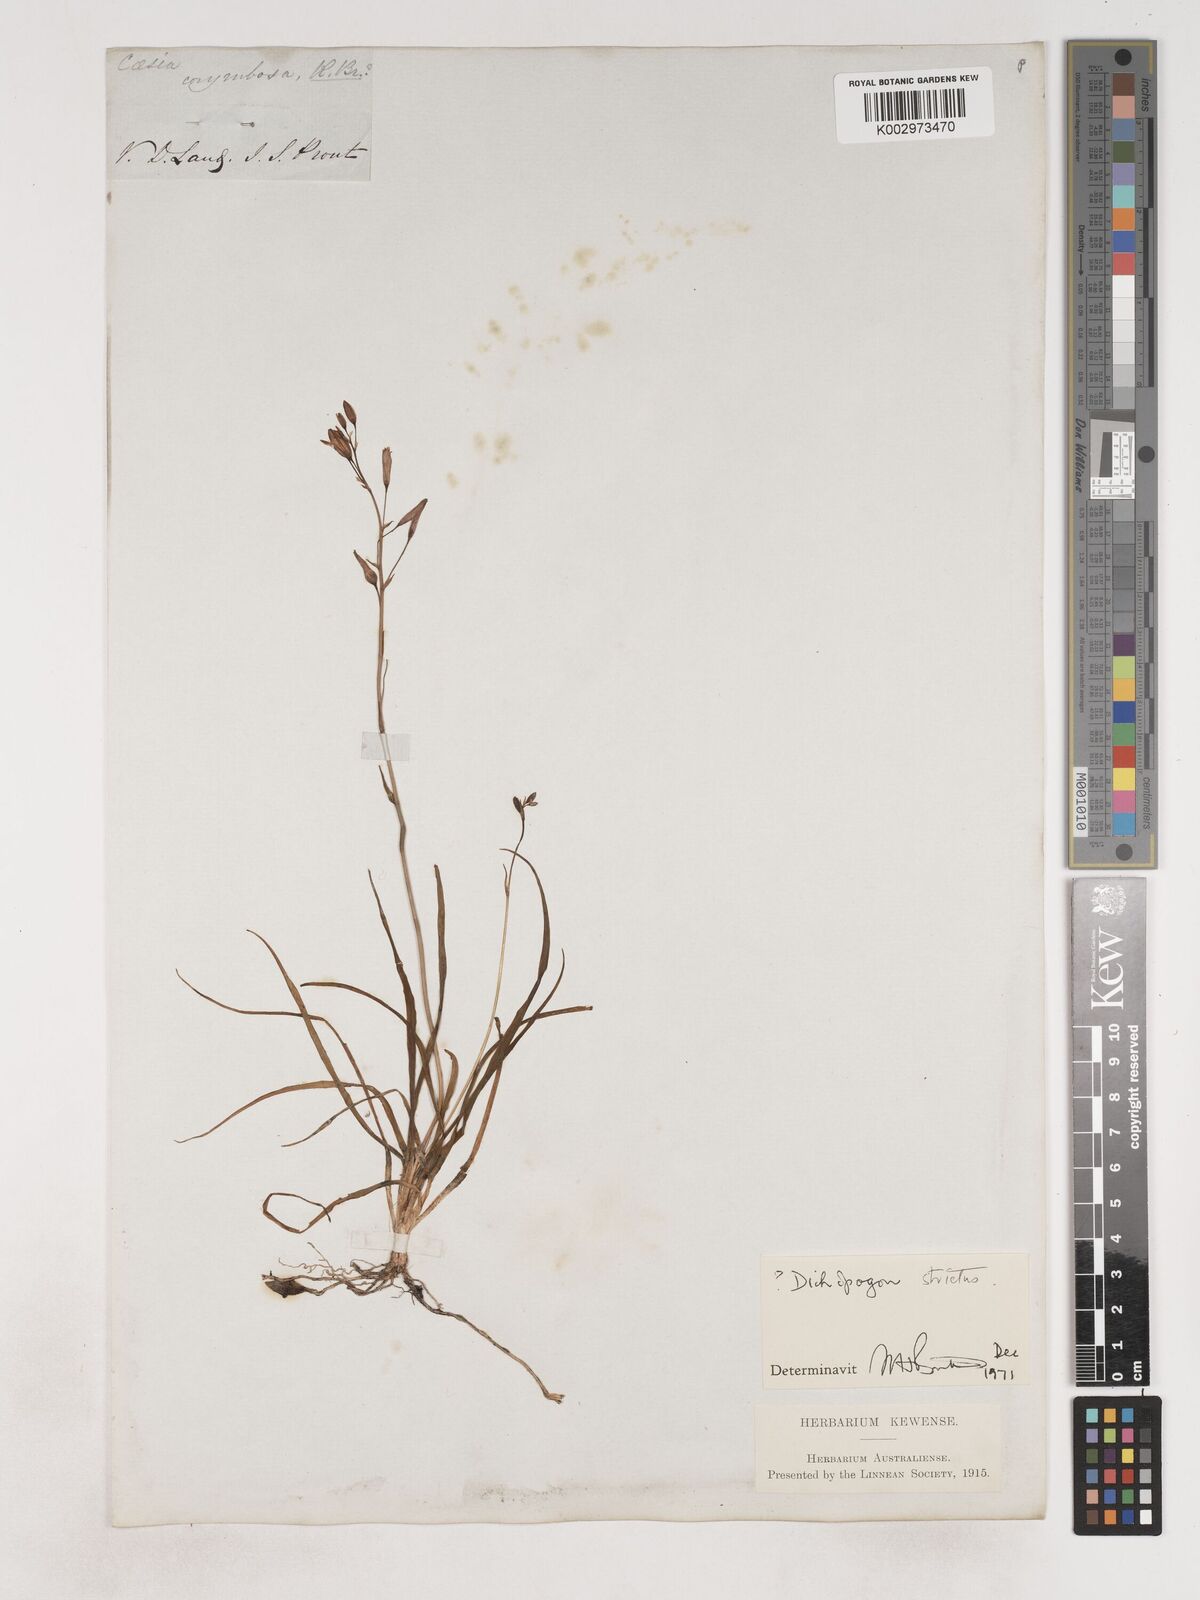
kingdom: Plantae
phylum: Tracheophyta
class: Liliopsida
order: Asparagales
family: Asparagaceae
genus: Arthropodium
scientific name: Arthropodium strictum
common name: Chocolate-lily
